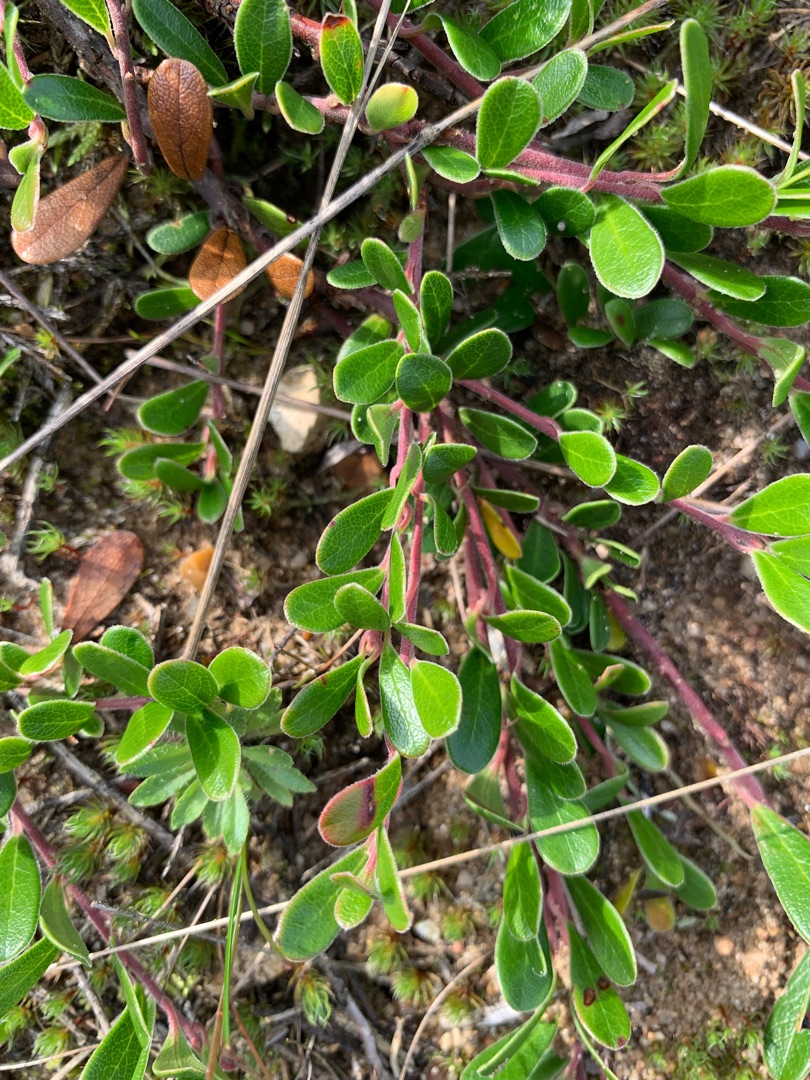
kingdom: Plantae
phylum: Tracheophyta
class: Magnoliopsida
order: Ericales
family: Ericaceae
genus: Arctostaphylos
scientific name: Arctostaphylos uva-ursi
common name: Hede-melbærris
